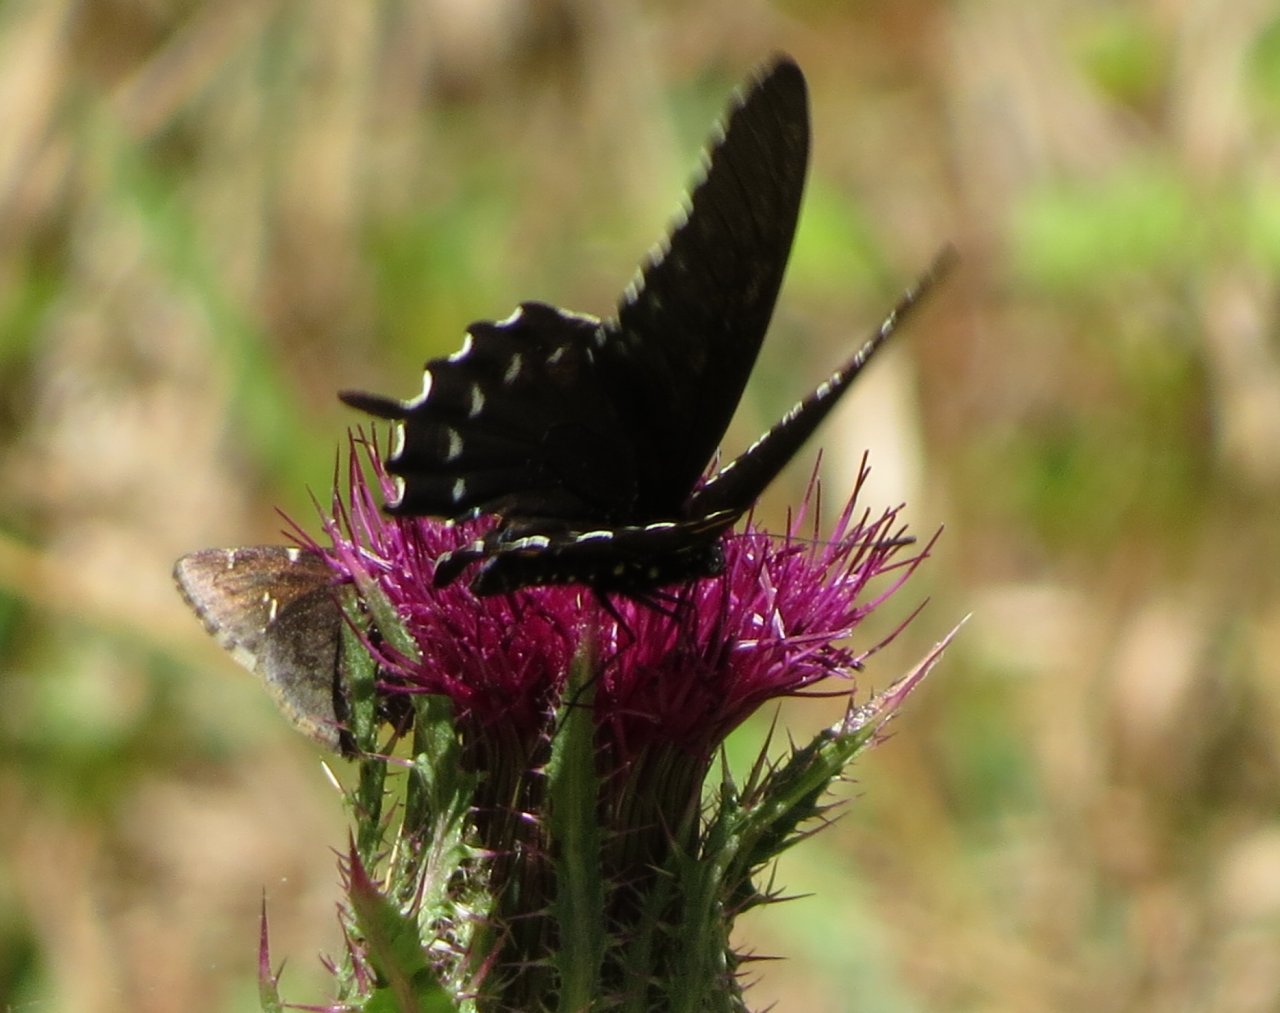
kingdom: Animalia
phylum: Arthropoda
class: Insecta
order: Lepidoptera
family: Hesperiidae
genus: Autochton
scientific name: Autochton
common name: Southern Cloudywing
